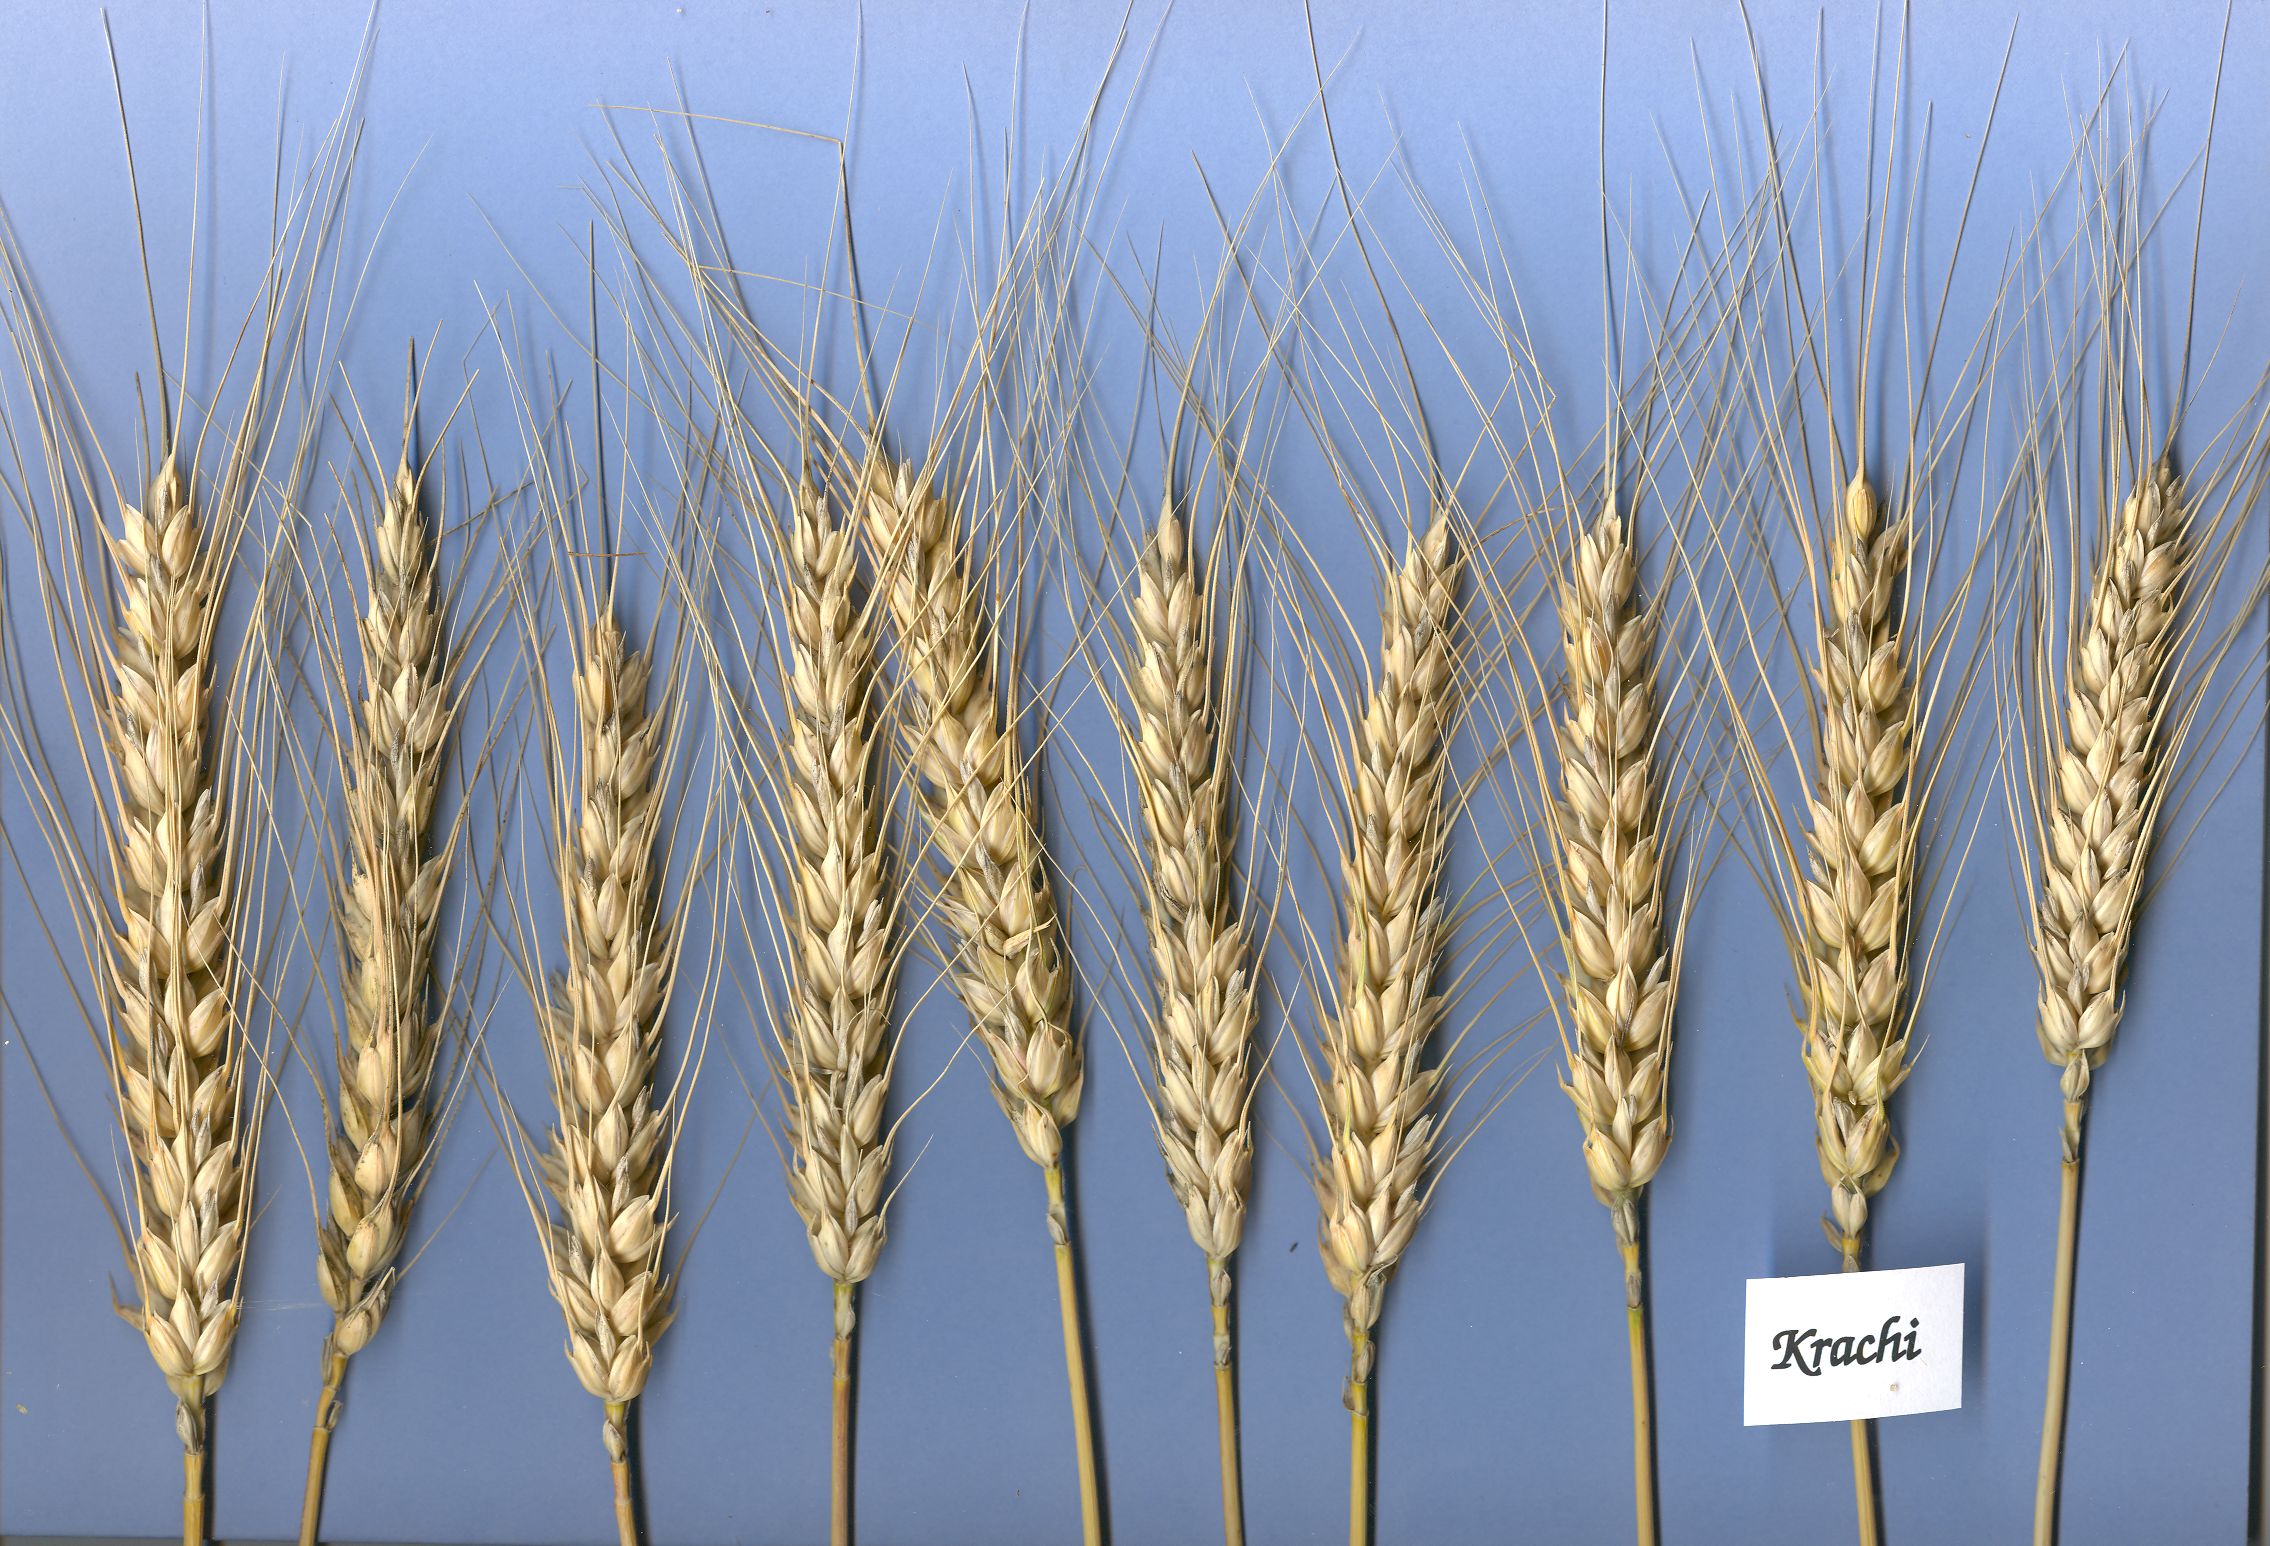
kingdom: Plantae
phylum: Tracheophyta
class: Liliopsida
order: Poales
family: Poaceae
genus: Triticum
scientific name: Triticum aestivum
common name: Common wheat
